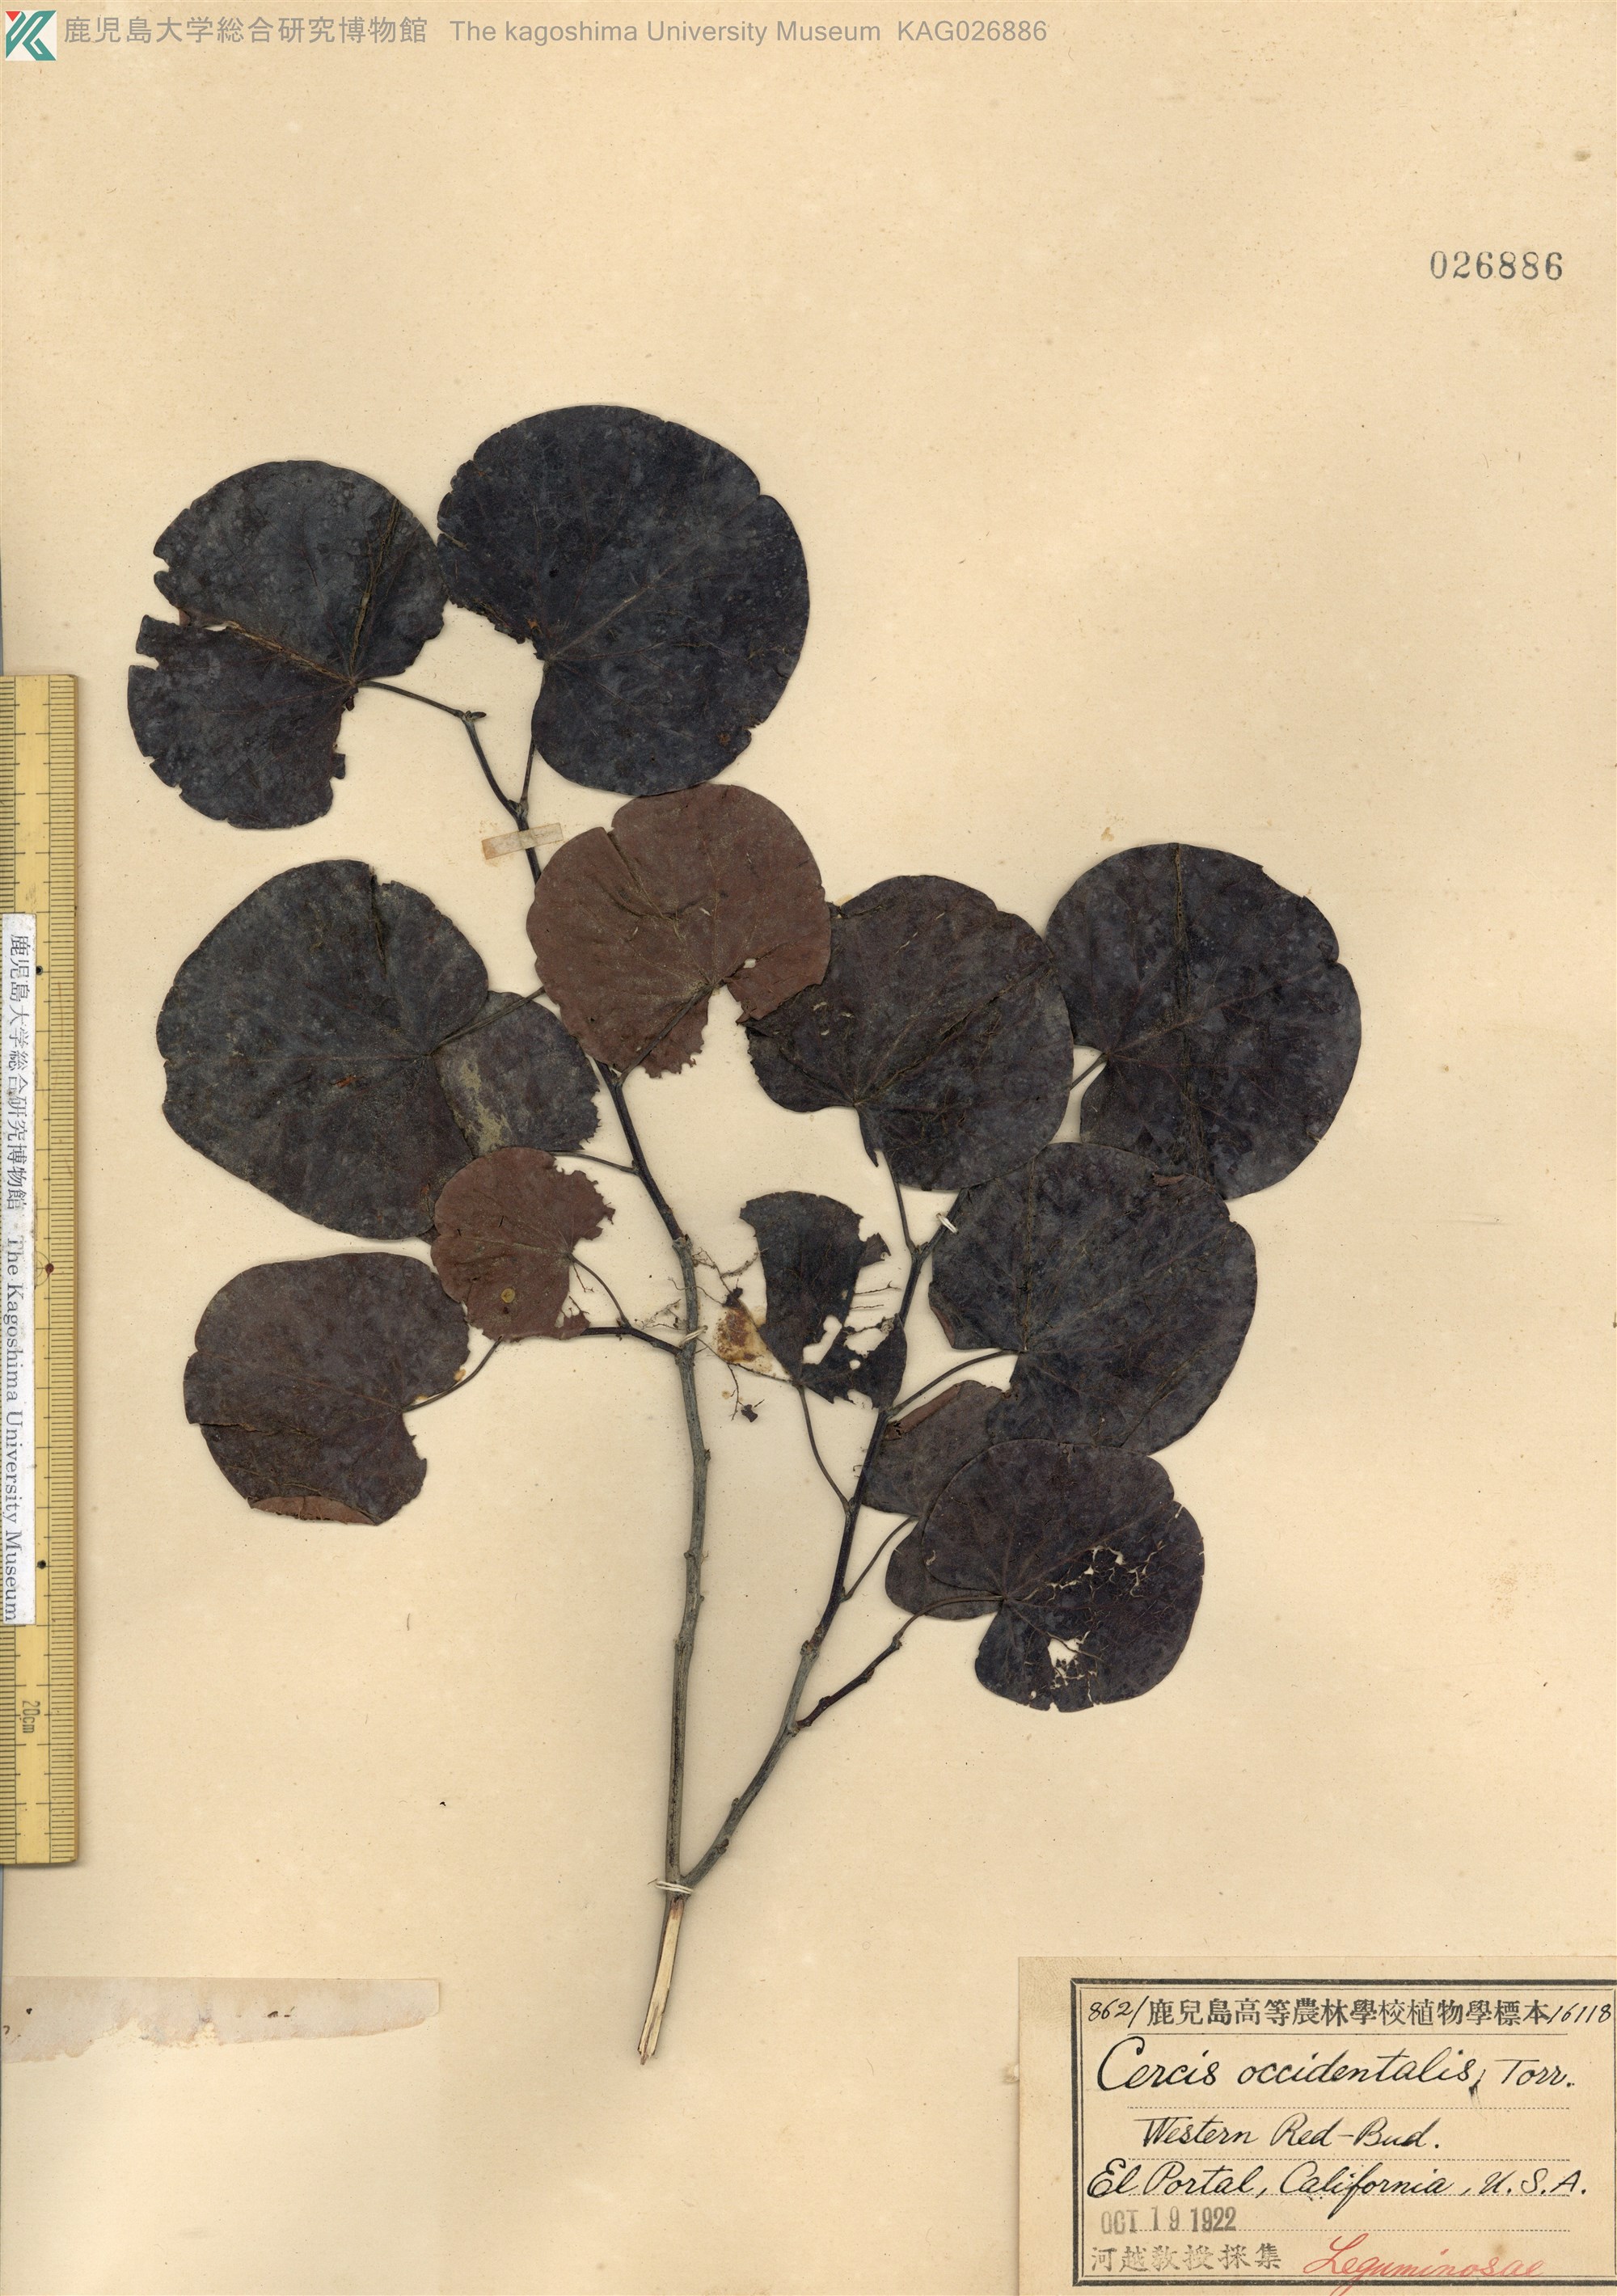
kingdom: Plantae
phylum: Tracheophyta
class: Magnoliopsida
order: Fabales
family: Fabaceae
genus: Cercis
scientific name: Cercis occidentalis
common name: California redbud
